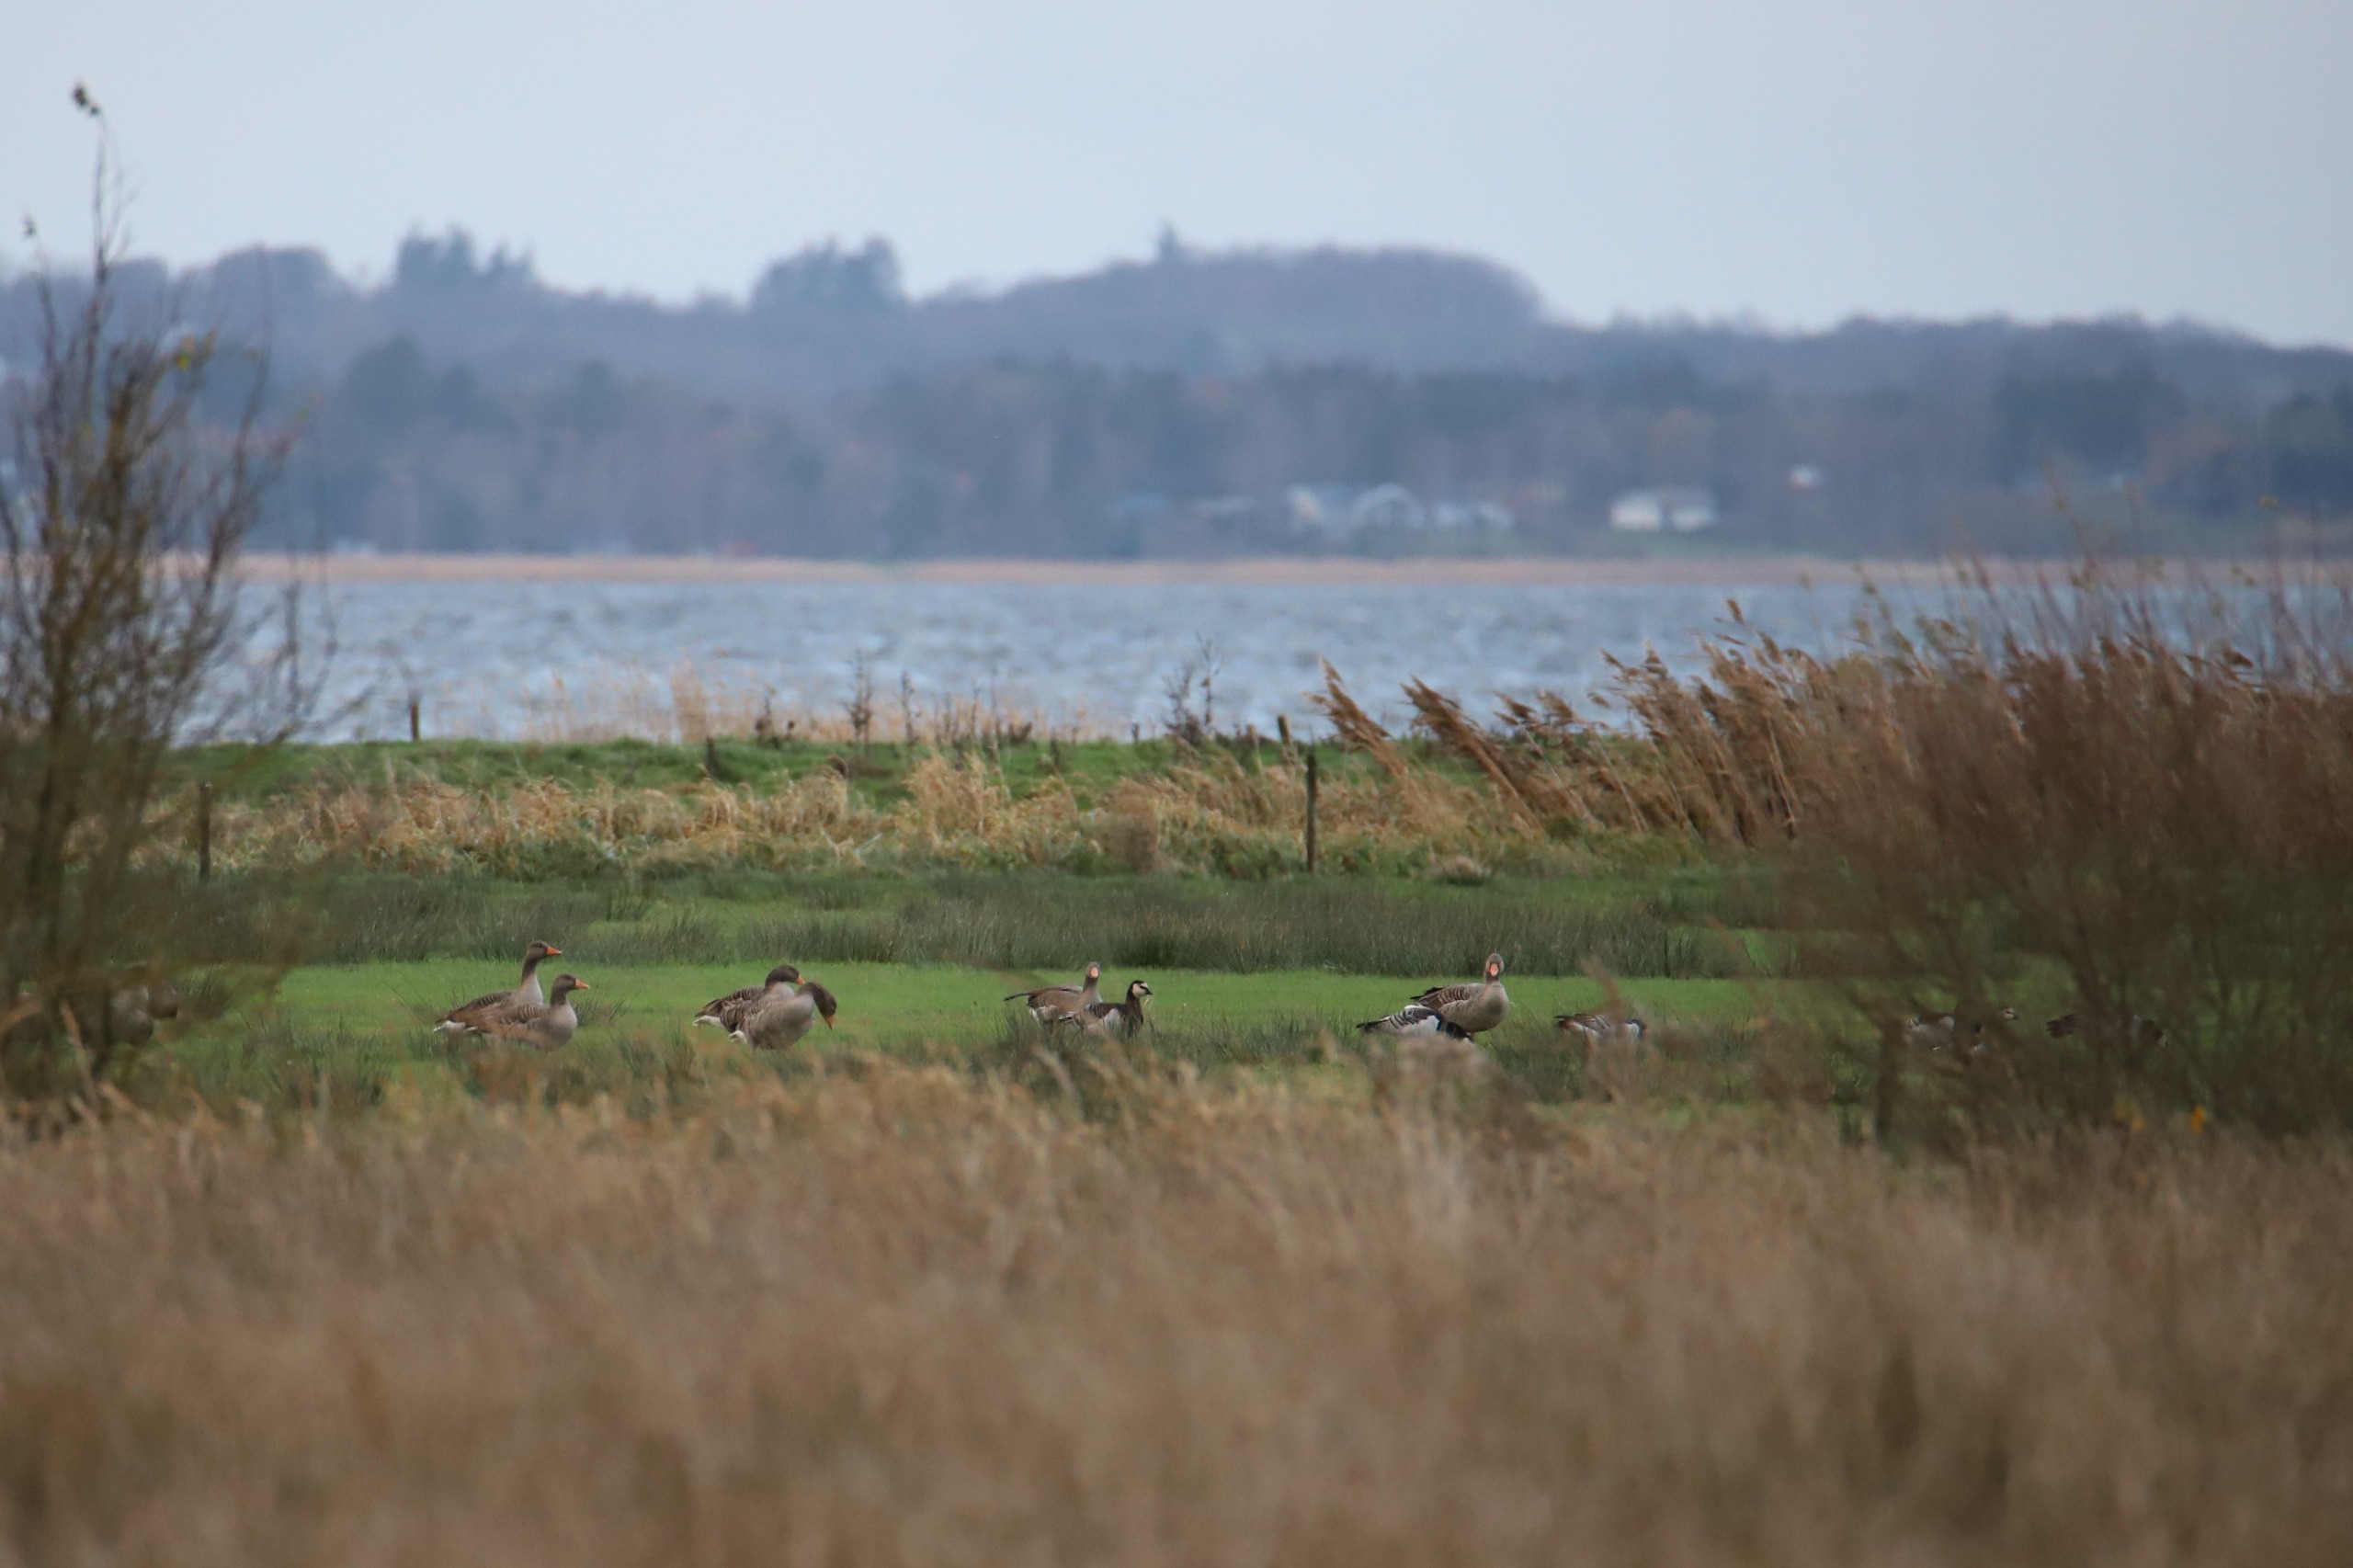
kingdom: Animalia
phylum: Chordata
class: Aves
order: Anseriformes
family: Anatidae
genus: Anser
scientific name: Anser anser
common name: Grågås
